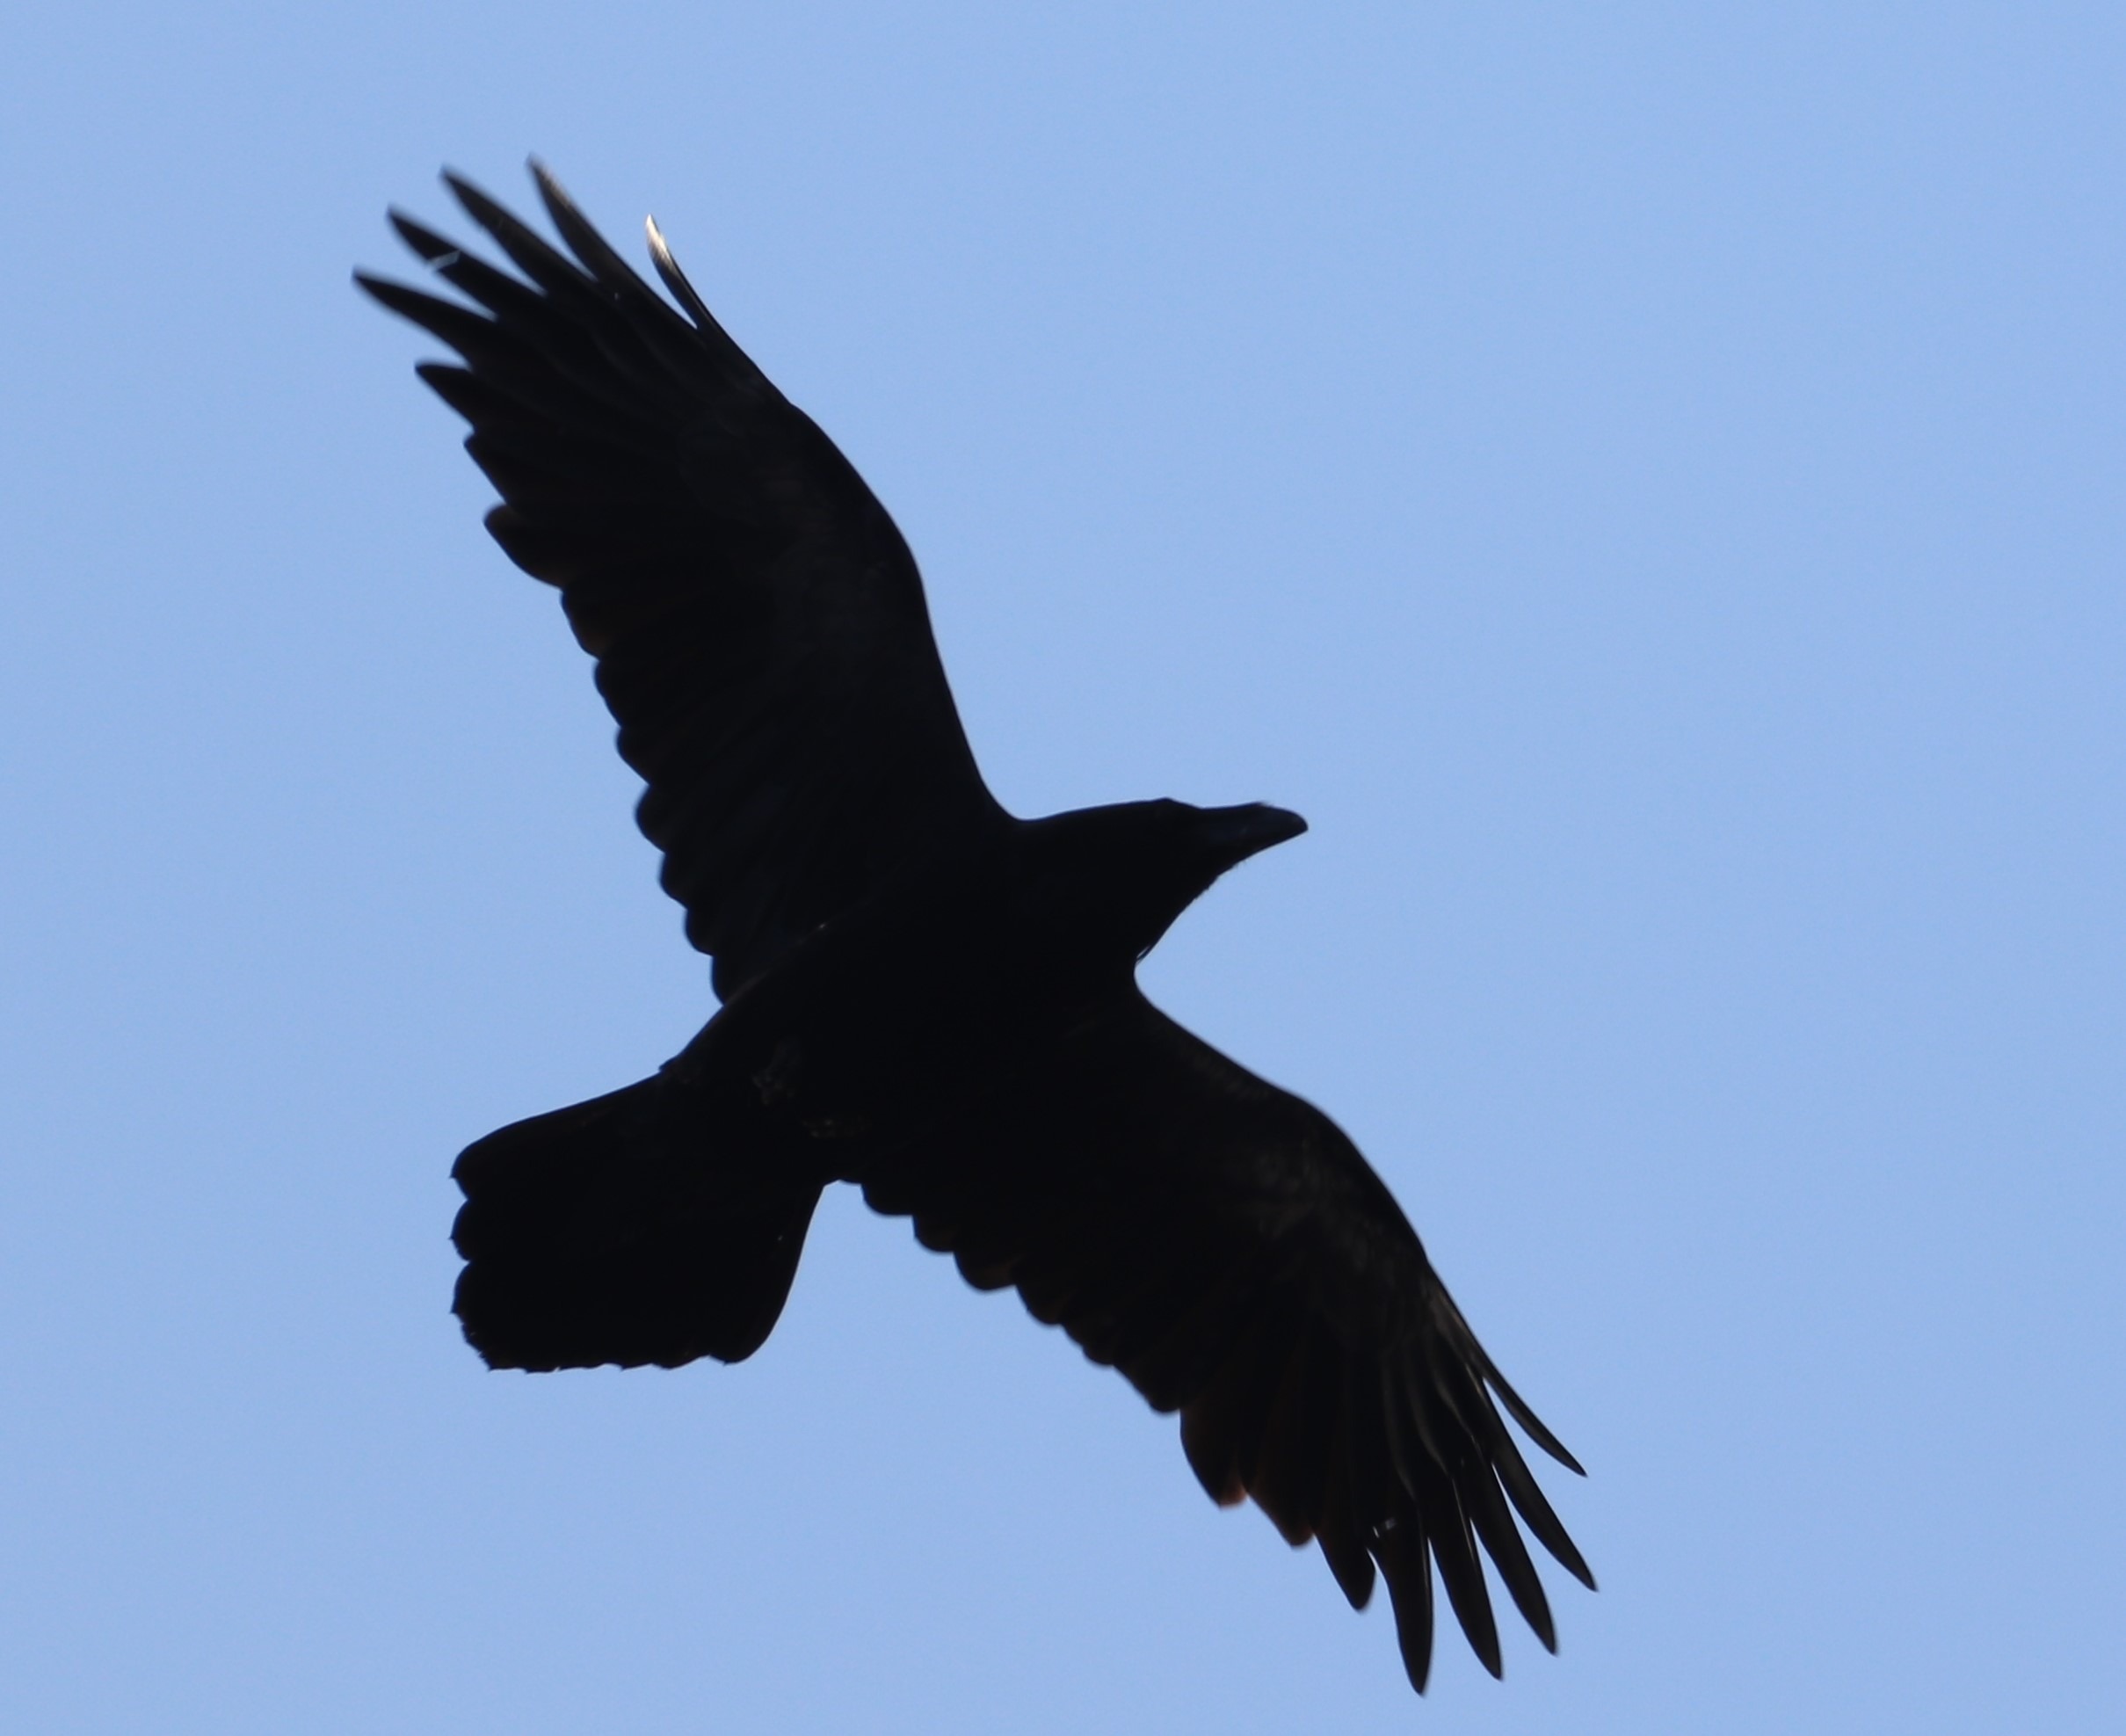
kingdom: Animalia
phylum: Chordata
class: Aves
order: Passeriformes
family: Corvidae
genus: Corvus
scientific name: Corvus corax
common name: Ravn
